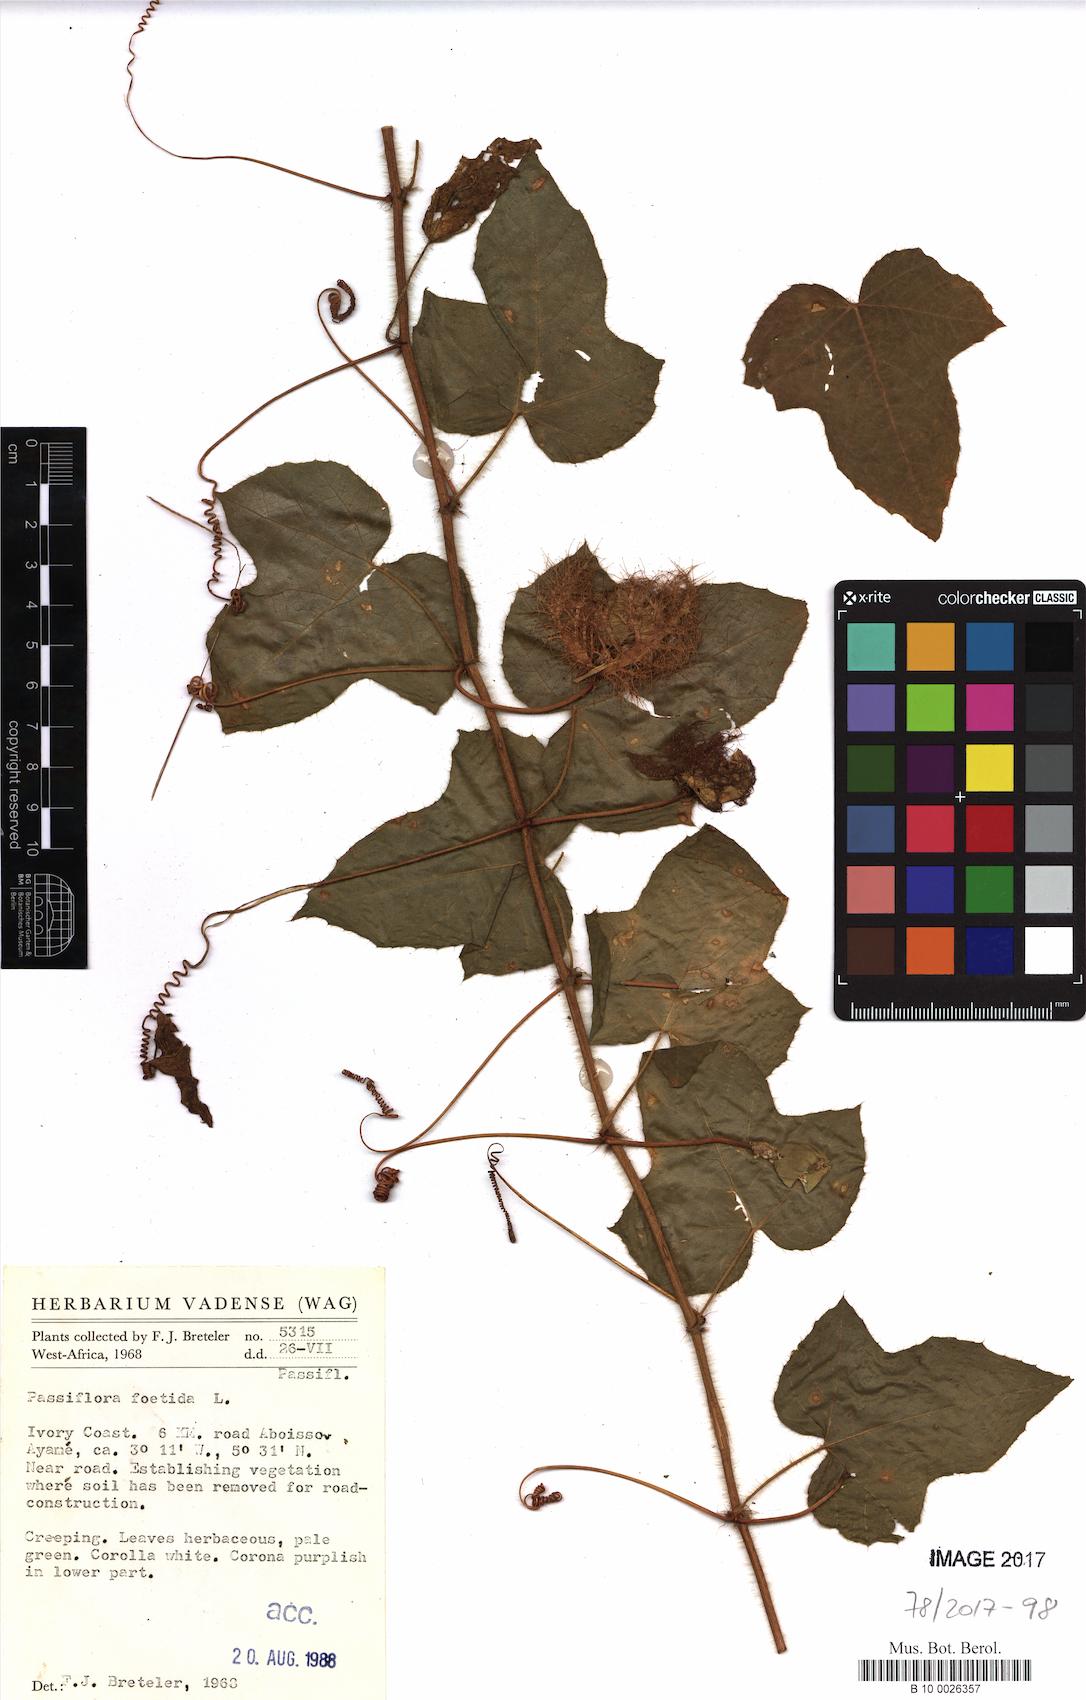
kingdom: Plantae
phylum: Tracheophyta
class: Magnoliopsida
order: Malpighiales
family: Passifloraceae
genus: Passiflora
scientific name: Passiflora foetida
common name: Fetid passionflower
